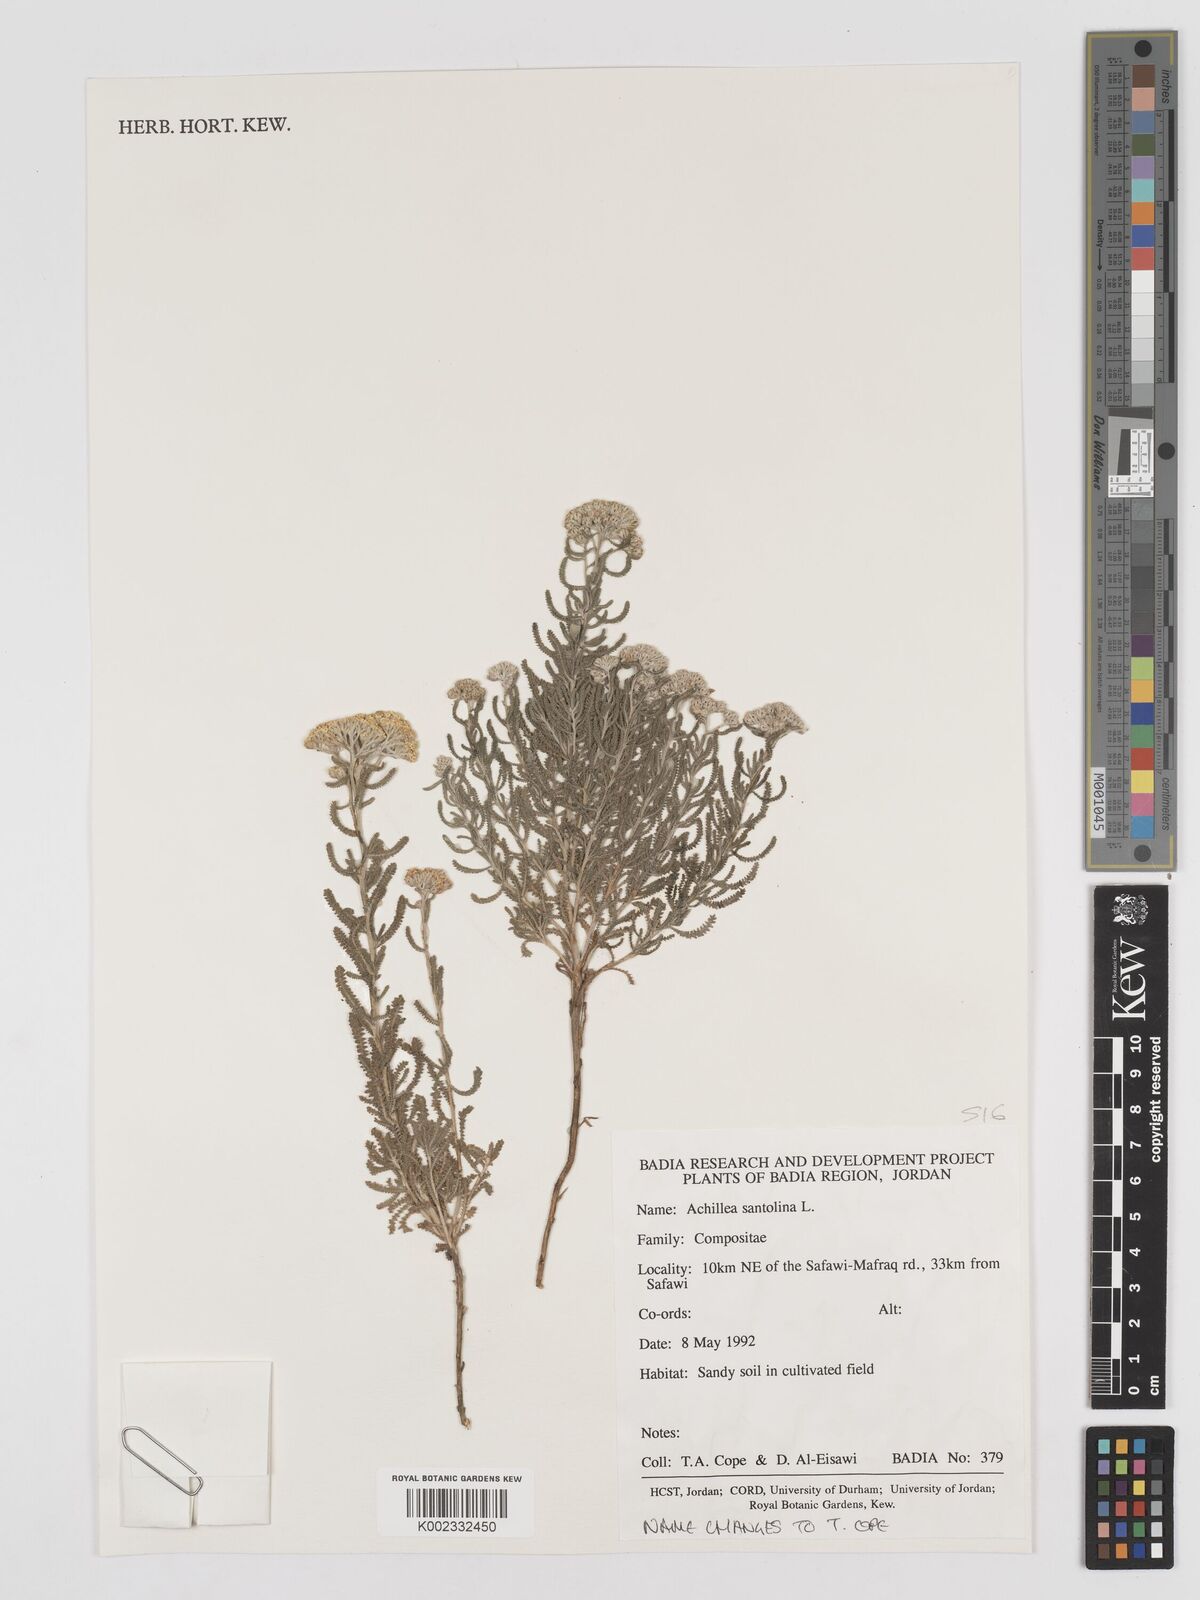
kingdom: Plantae
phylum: Tracheophyta
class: Magnoliopsida
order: Asterales
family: Asteraceae
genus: Achillea
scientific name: Achillea tenuifolia
